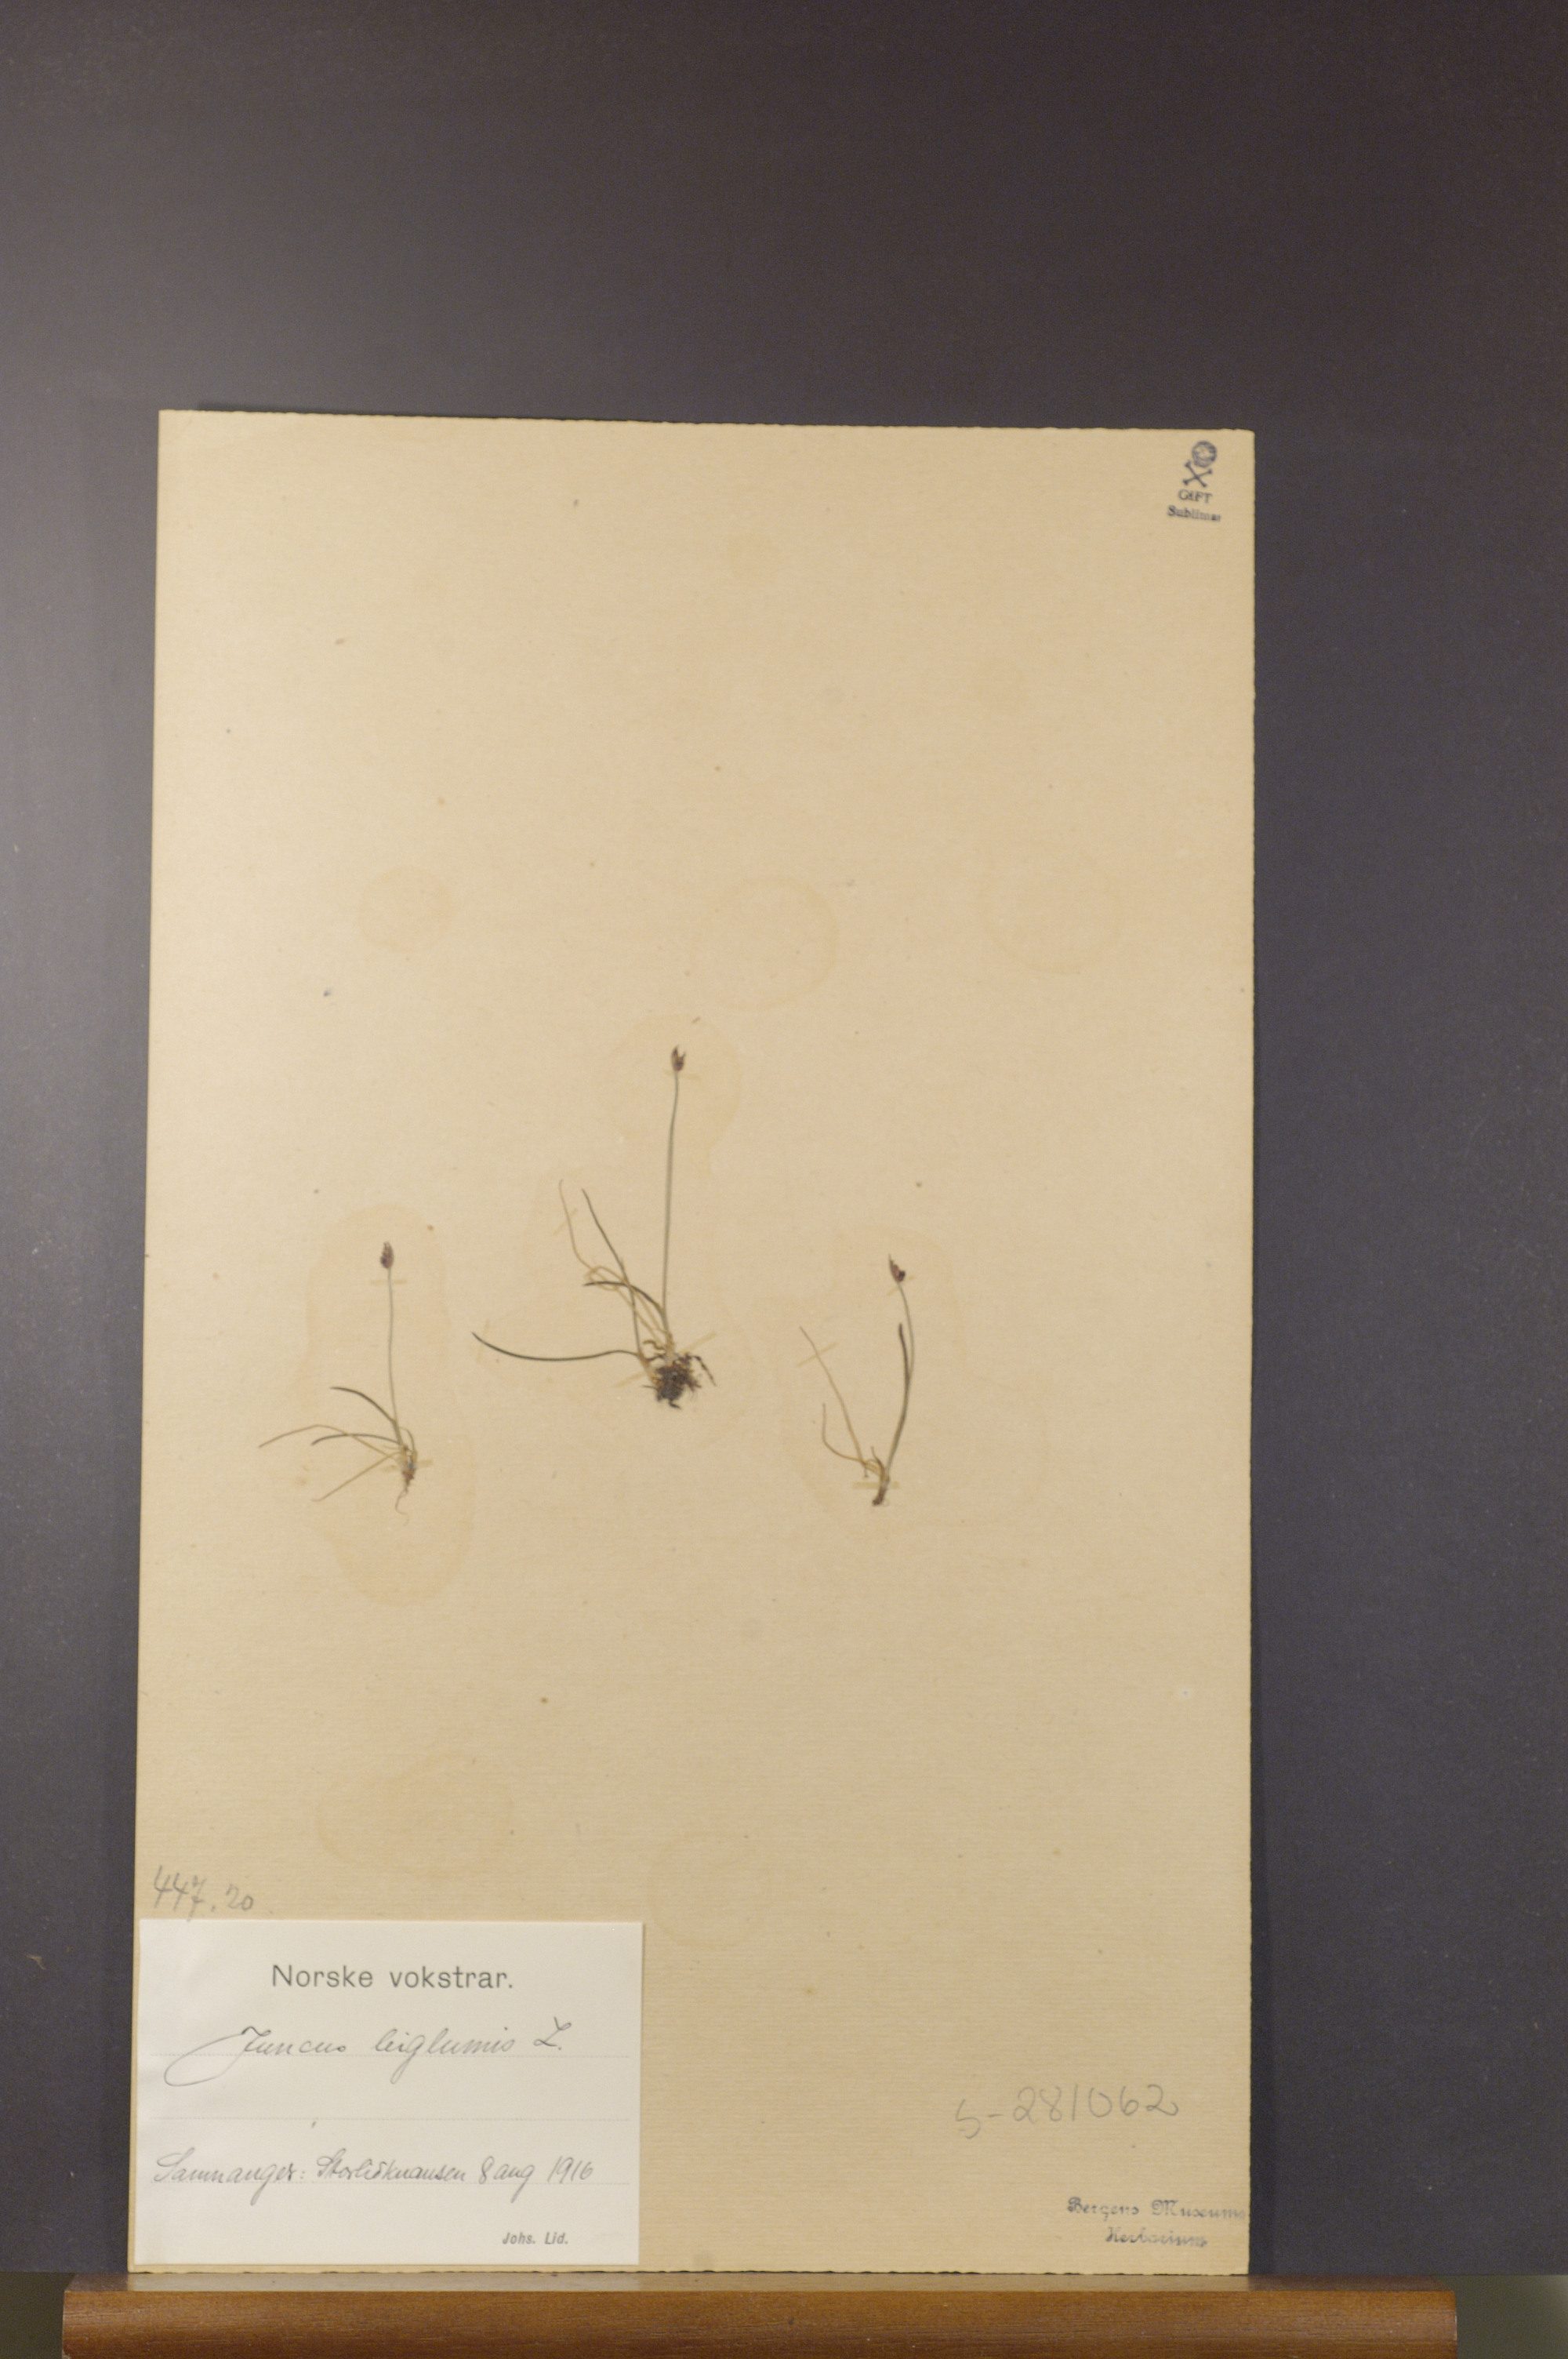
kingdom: Plantae
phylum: Tracheophyta
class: Liliopsida
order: Poales
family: Juncaceae
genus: Juncus
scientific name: Juncus biglumis
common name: Two-flowered rush
